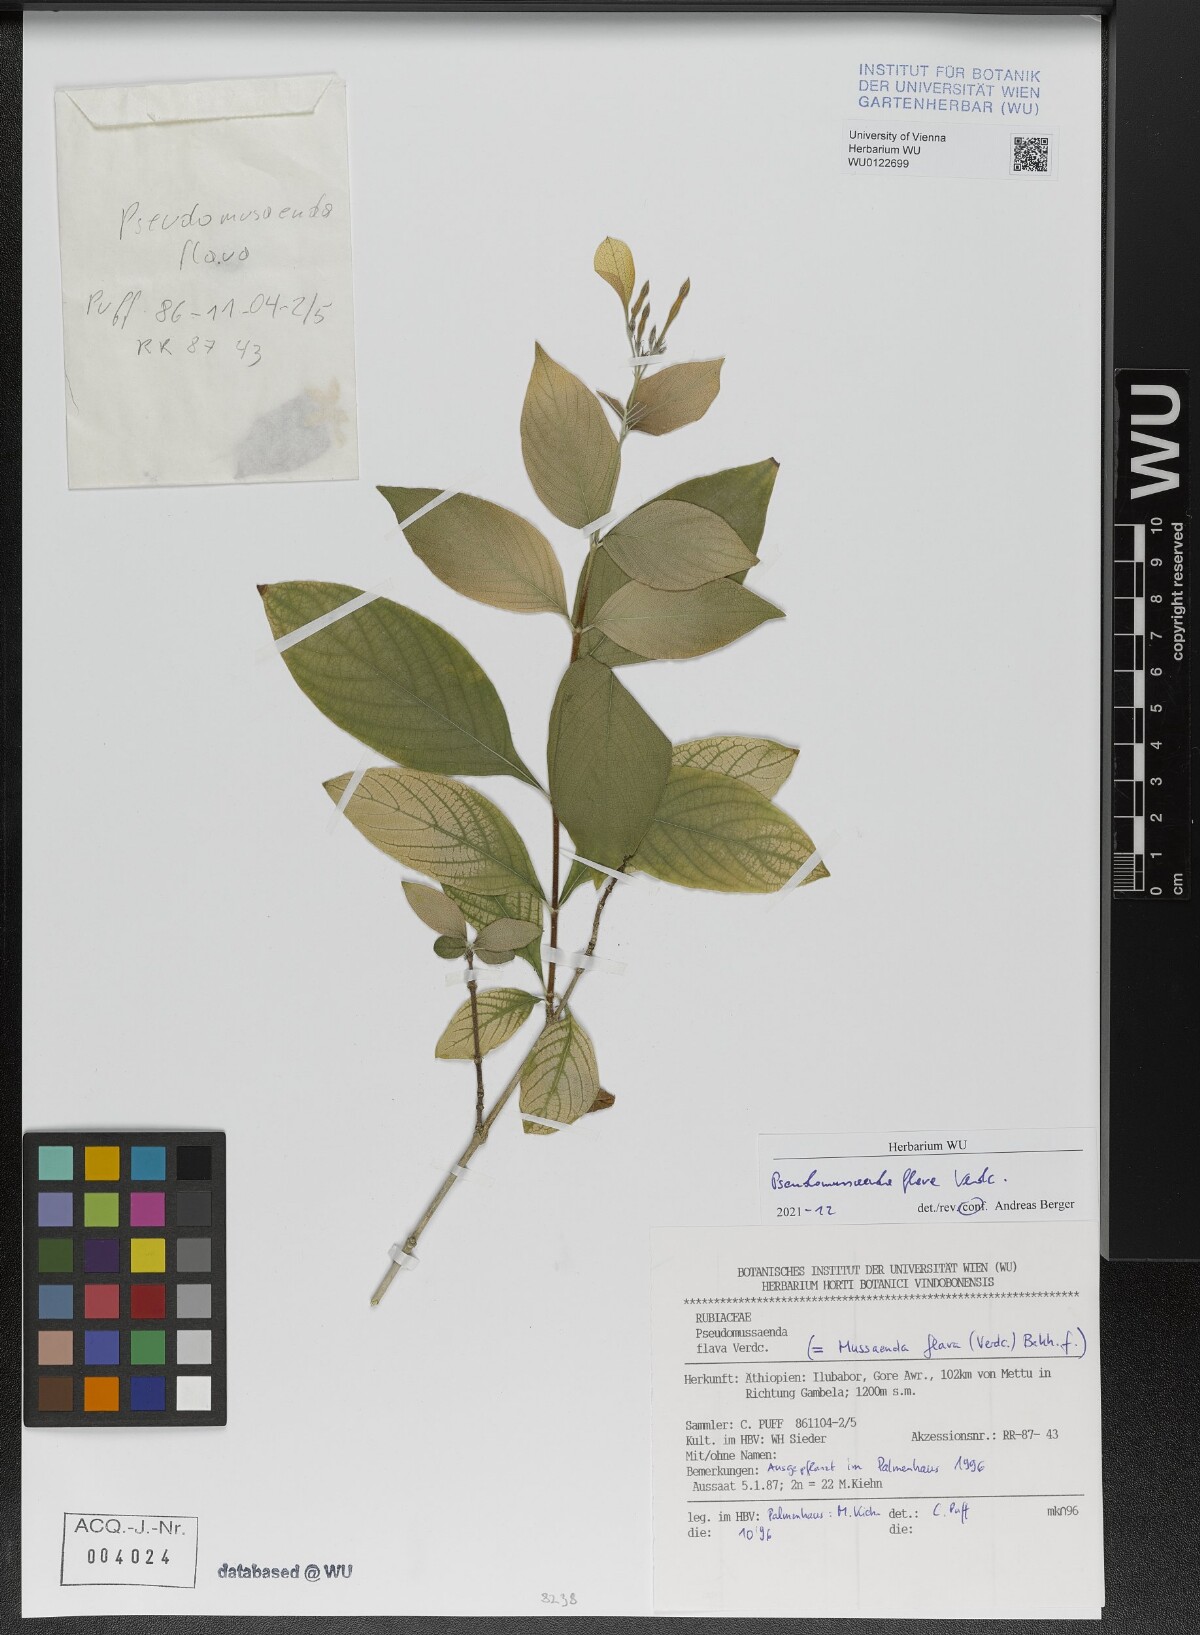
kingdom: Plantae
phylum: Tracheophyta
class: Magnoliopsida
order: Gentianales
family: Rubiaceae
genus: Pseudomussaenda
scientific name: Pseudomussaenda flava
